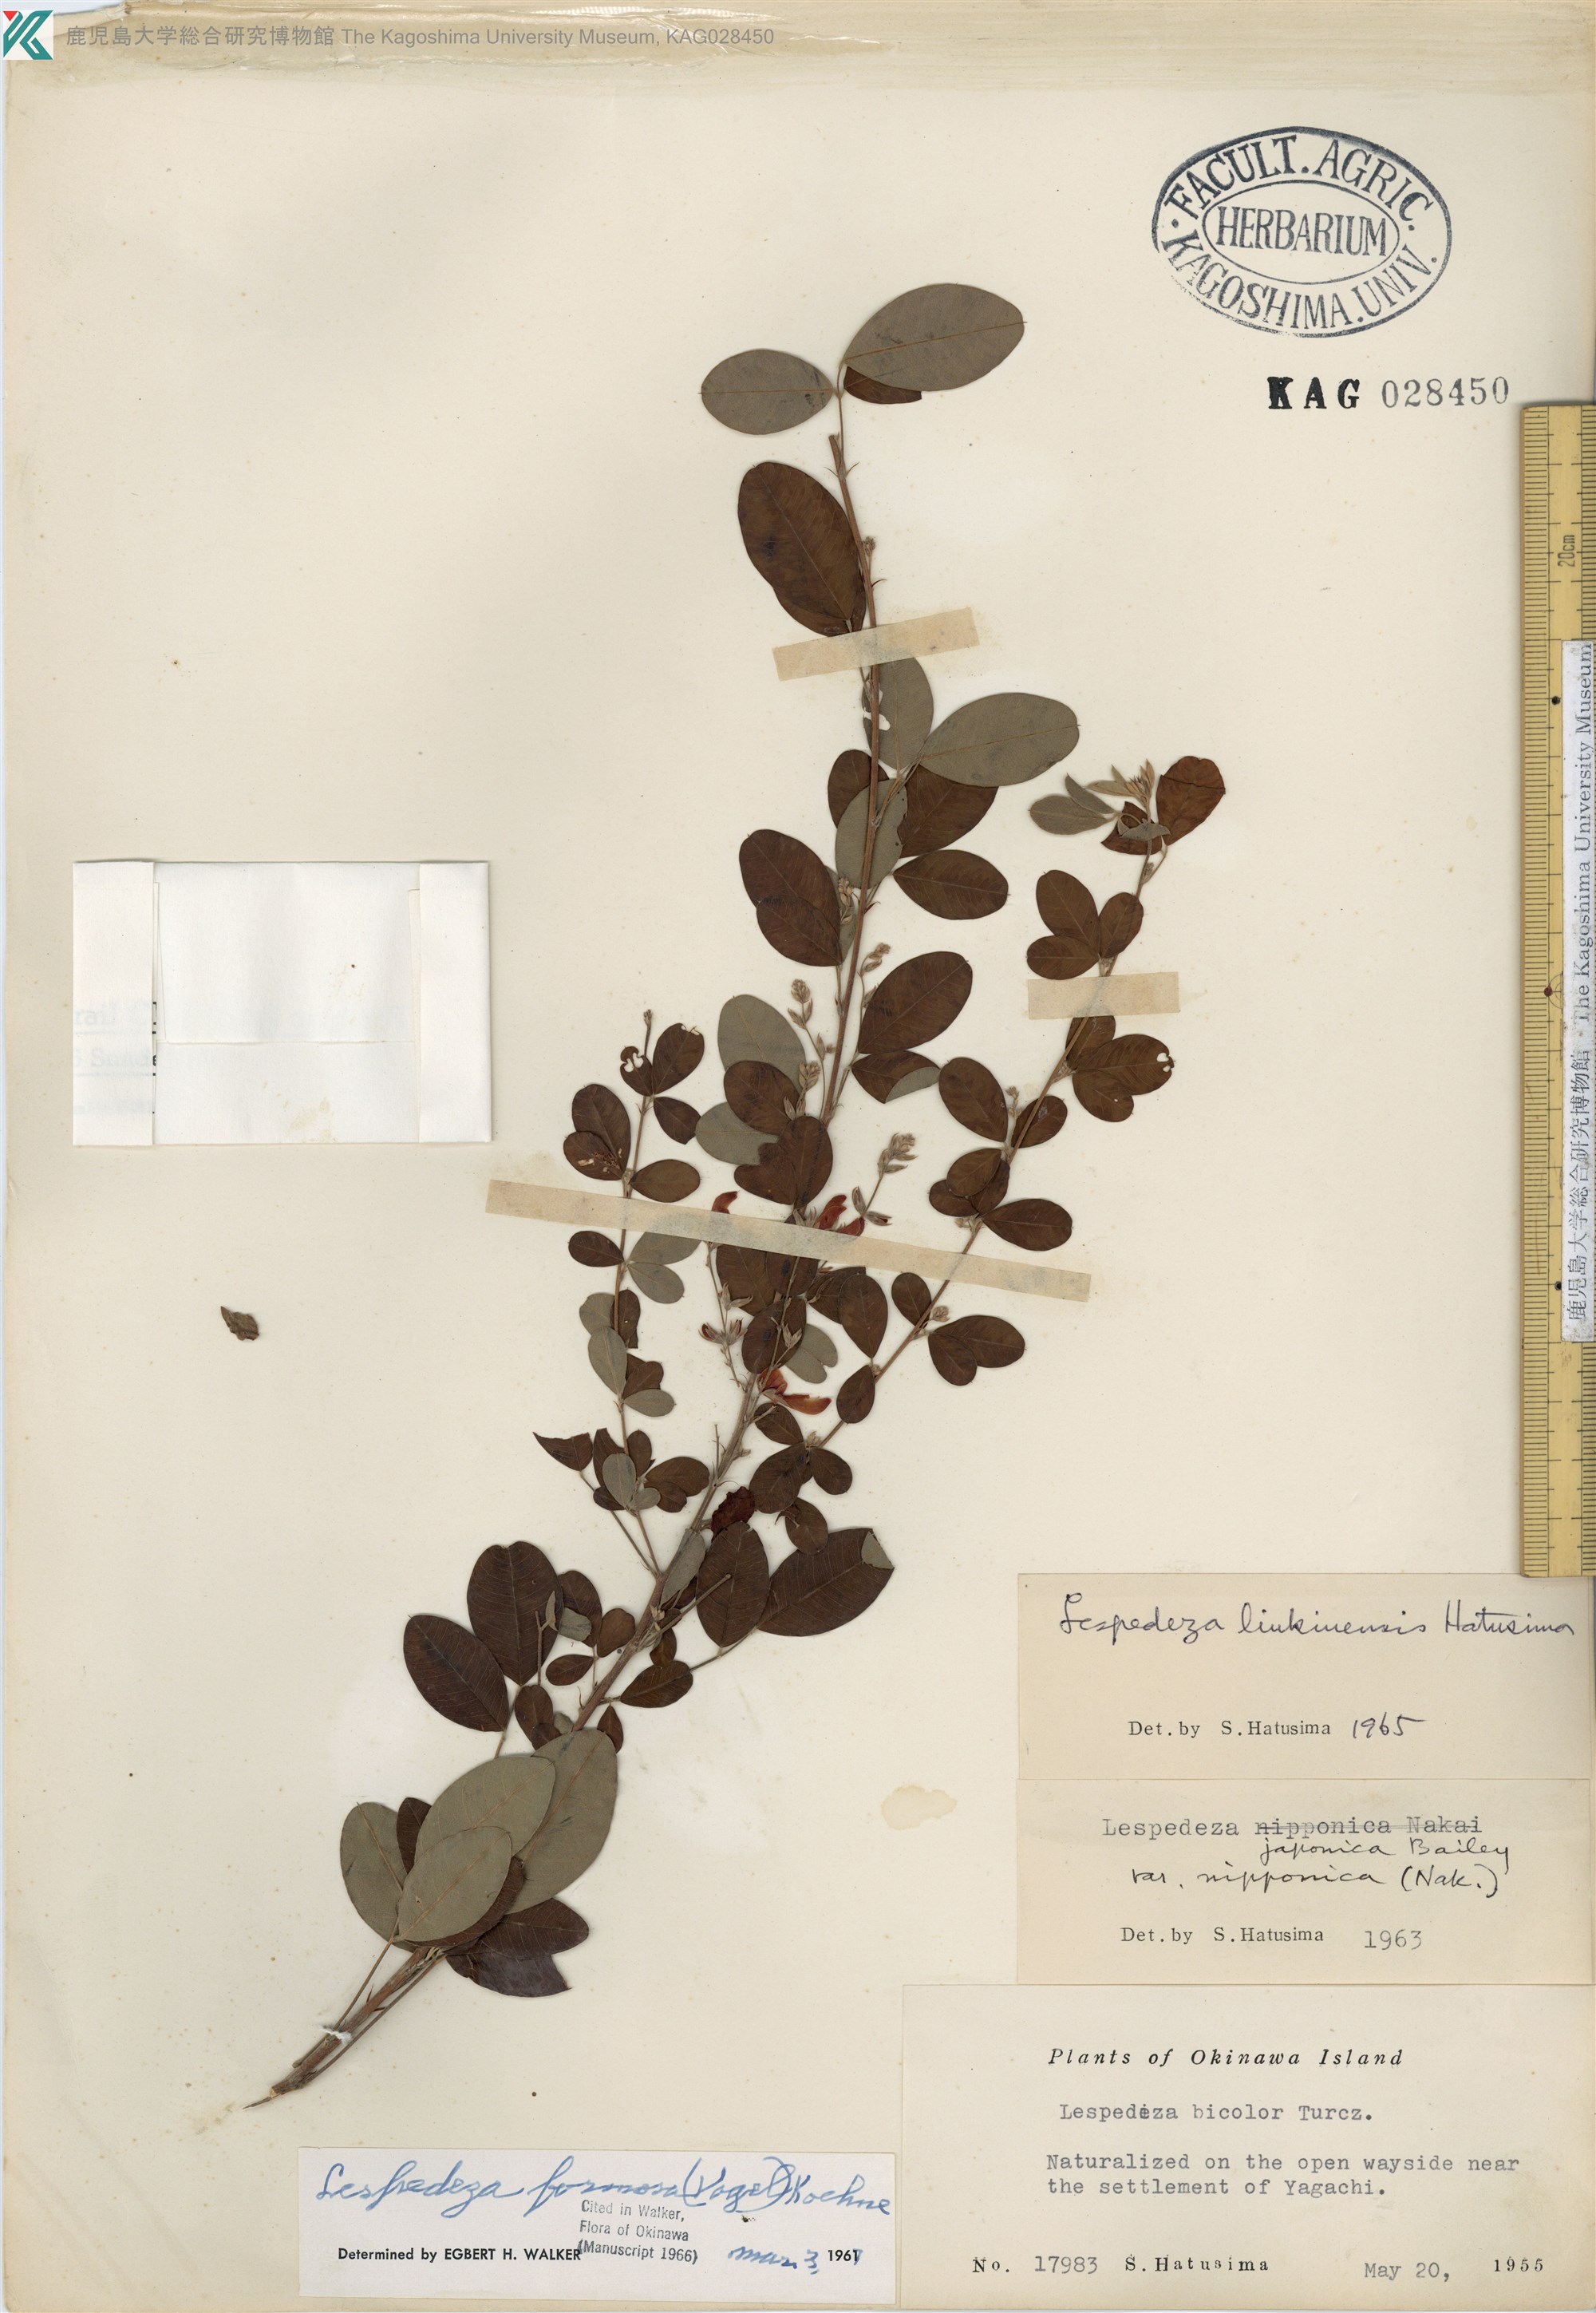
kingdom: Plantae
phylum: Tracheophyta
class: Magnoliopsida
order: Fabales
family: Fabaceae
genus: Lespedeza
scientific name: Lespedeza thunbergii
